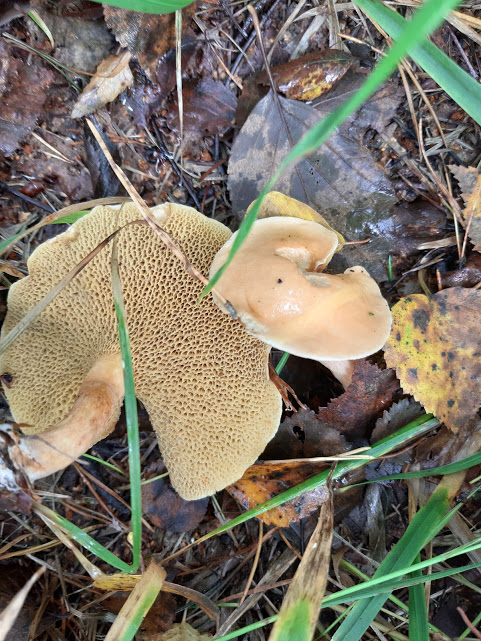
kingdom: Fungi
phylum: Basidiomycota
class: Agaricomycetes
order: Boletales
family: Suillaceae
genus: Suillus
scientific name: Suillus bovinus
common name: grovporet slimrørhat
